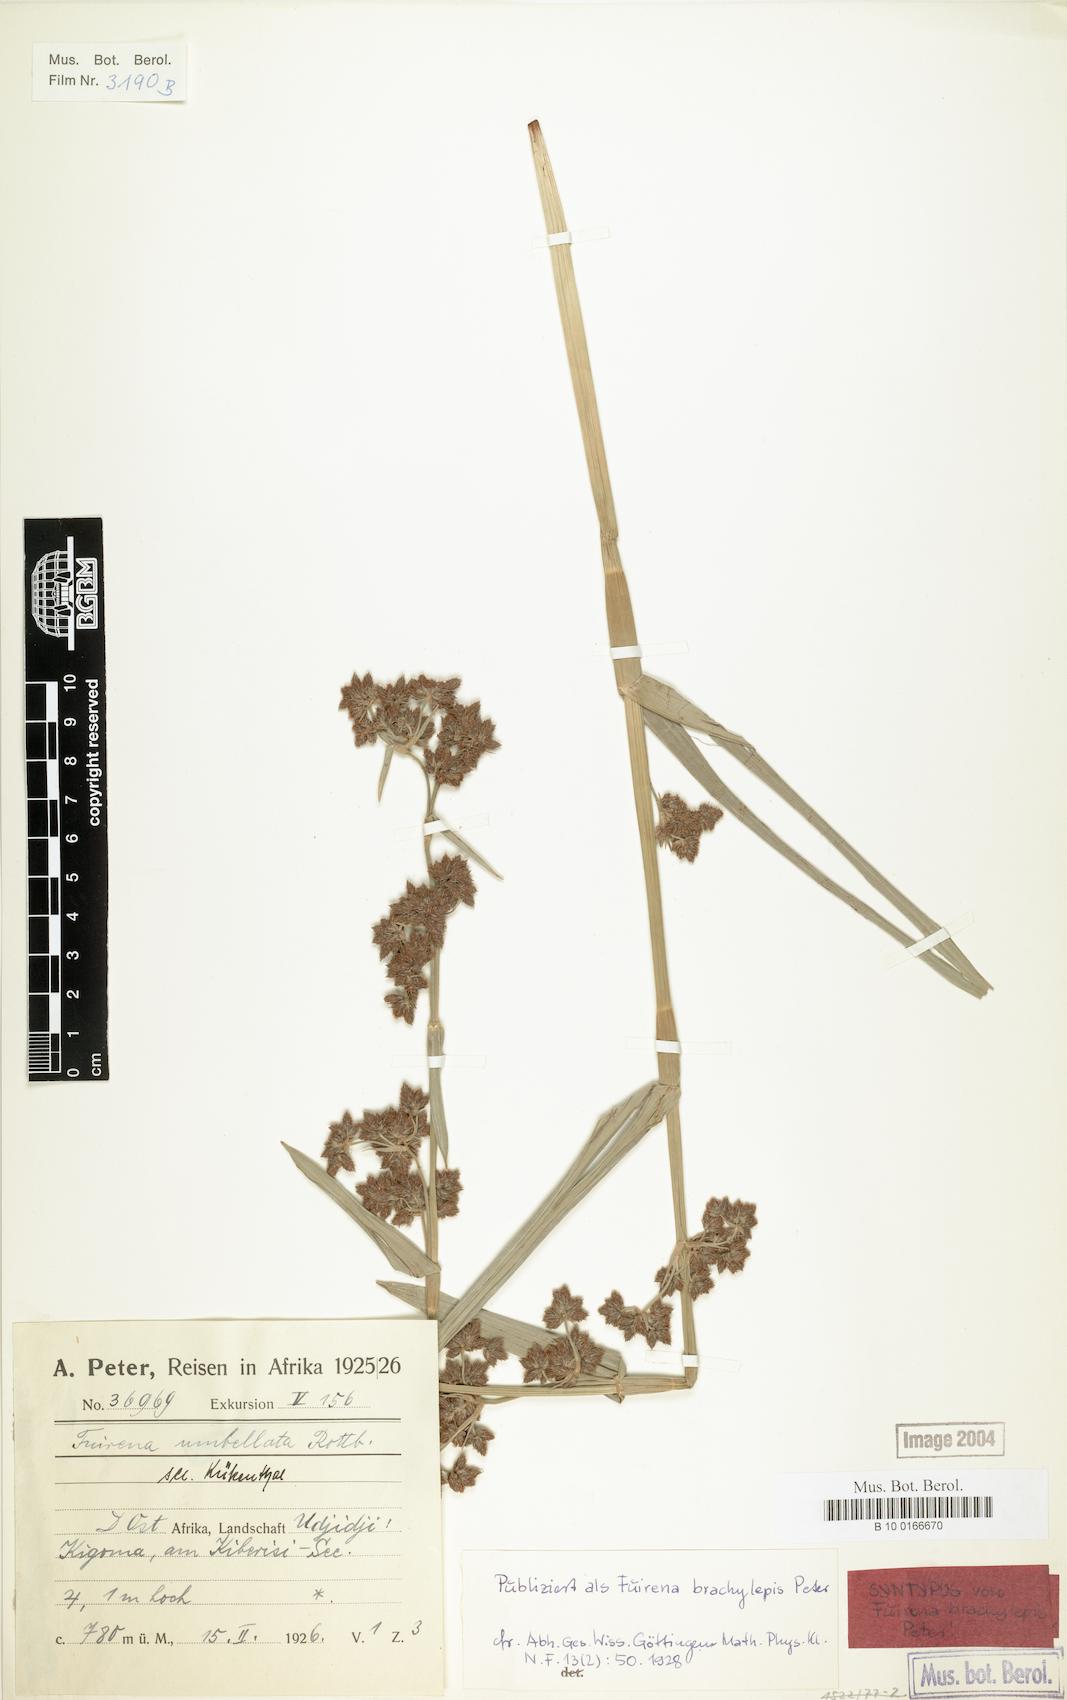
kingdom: Plantae
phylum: Tracheophyta
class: Liliopsida
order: Poales
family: Cyperaceae
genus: Fuirena
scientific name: Fuirena umbellata
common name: Yefen
